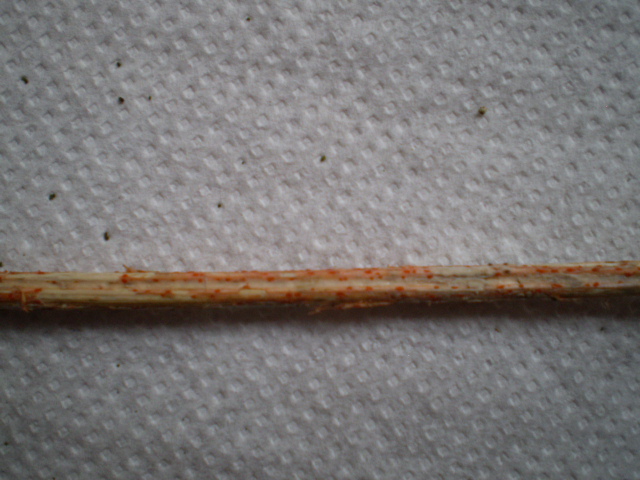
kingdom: Fungi
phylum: Ascomycota
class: Leotiomycetes
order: Helotiales
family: Calloriaceae
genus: Calloria
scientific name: Calloria urticae
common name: nælde-orangeskive
